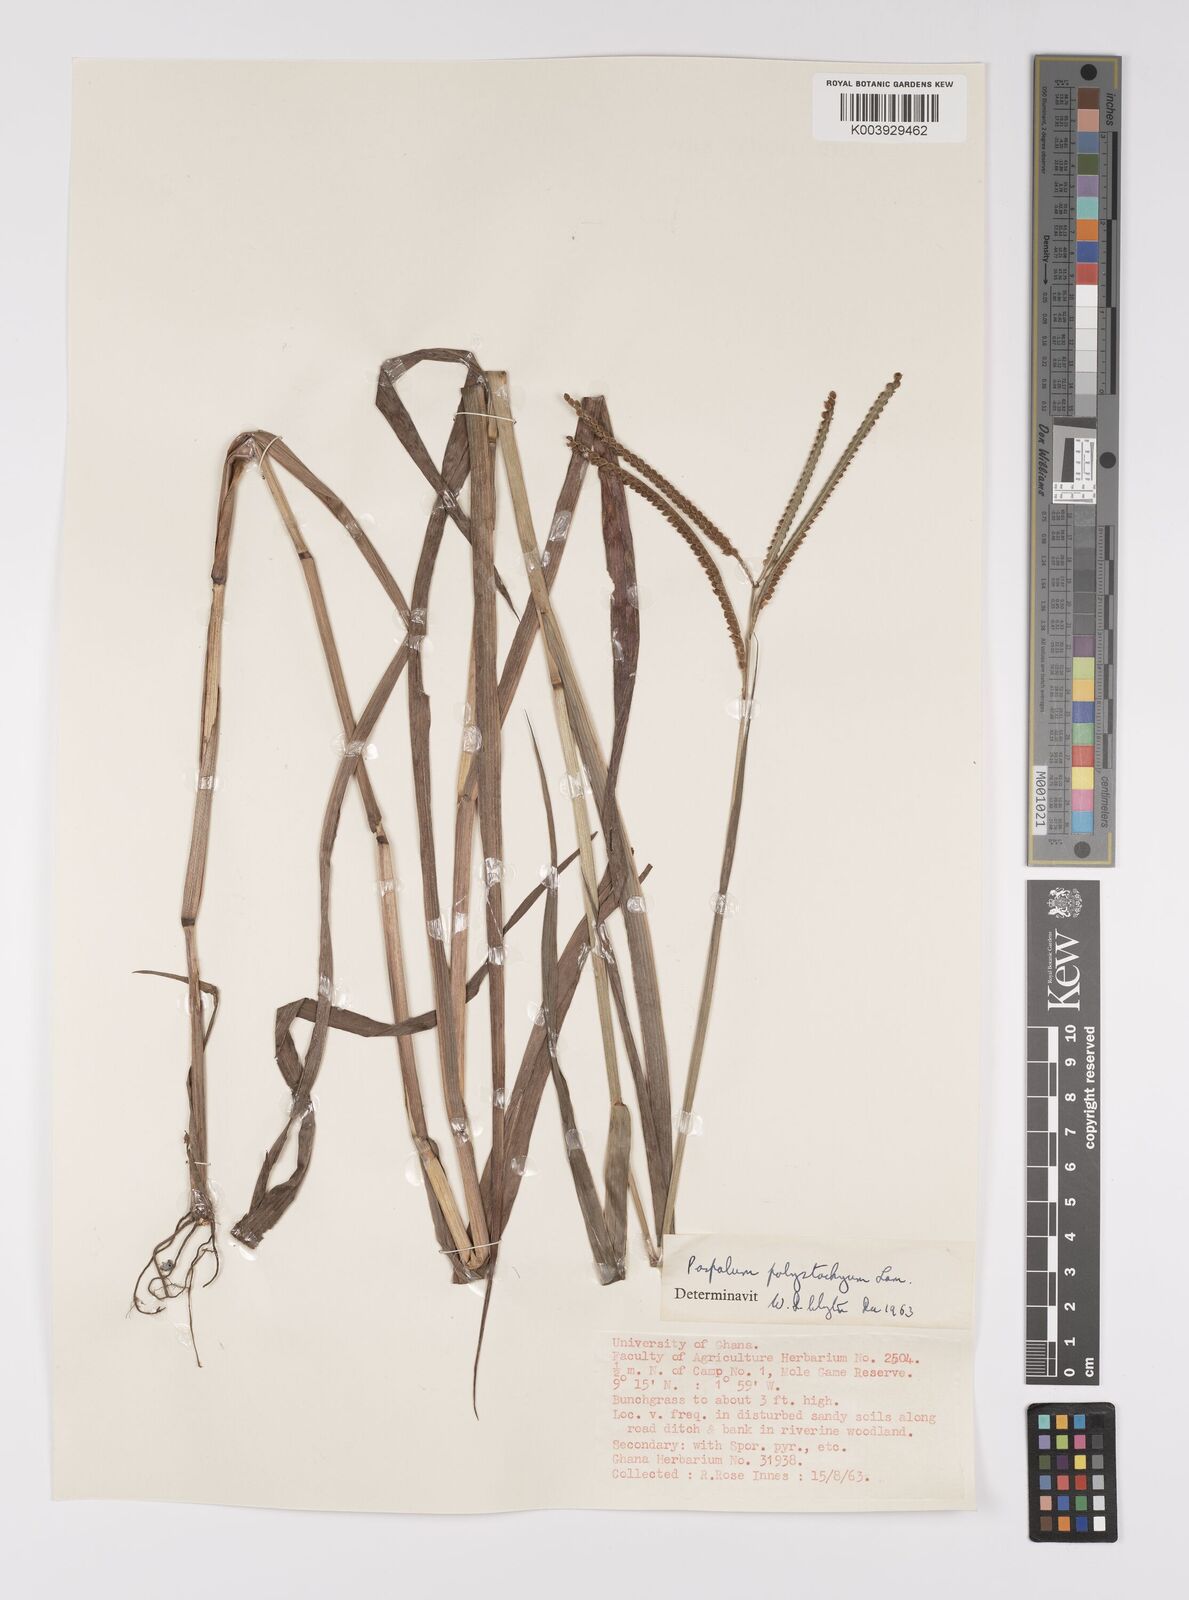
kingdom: Plantae
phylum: Tracheophyta
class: Liliopsida
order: Poales
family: Poaceae
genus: Paspalum
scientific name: Paspalum scrobiculatum
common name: Kodo millet
